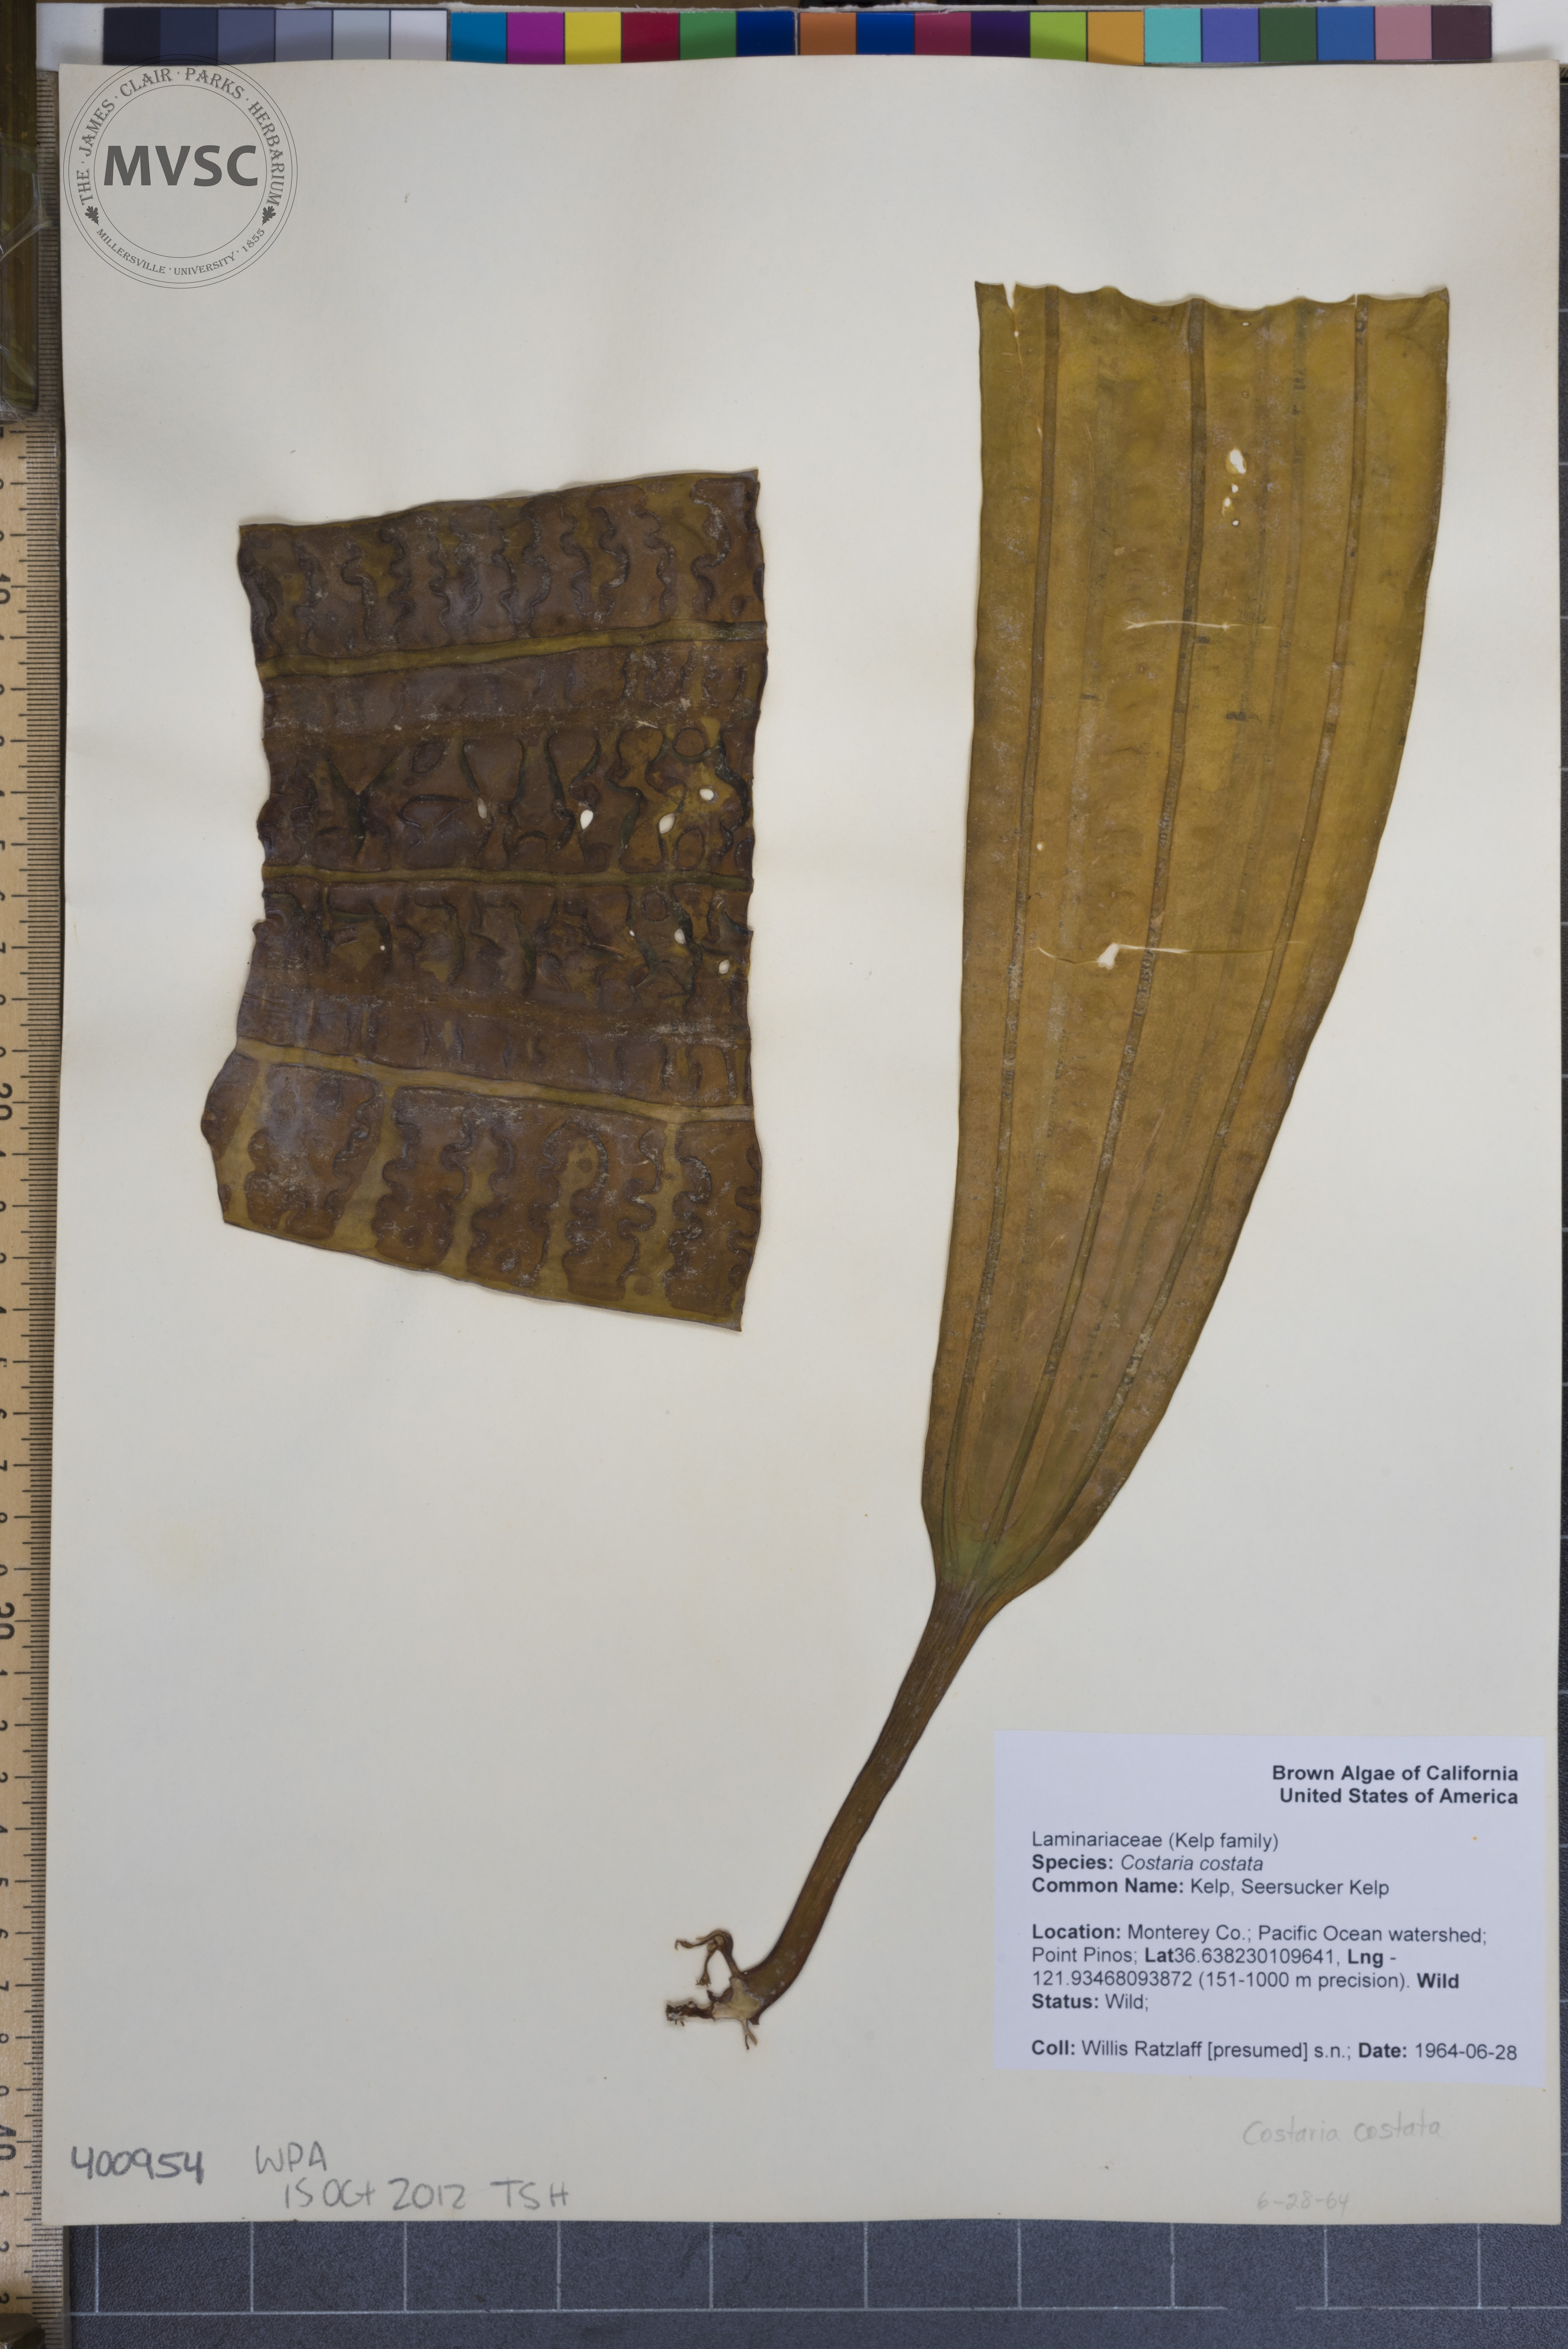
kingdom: Chromista
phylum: Ochrophyta
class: Phaeophyceae
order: Laminariales
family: Costariaceae
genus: Costaria
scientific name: Costaria costata
